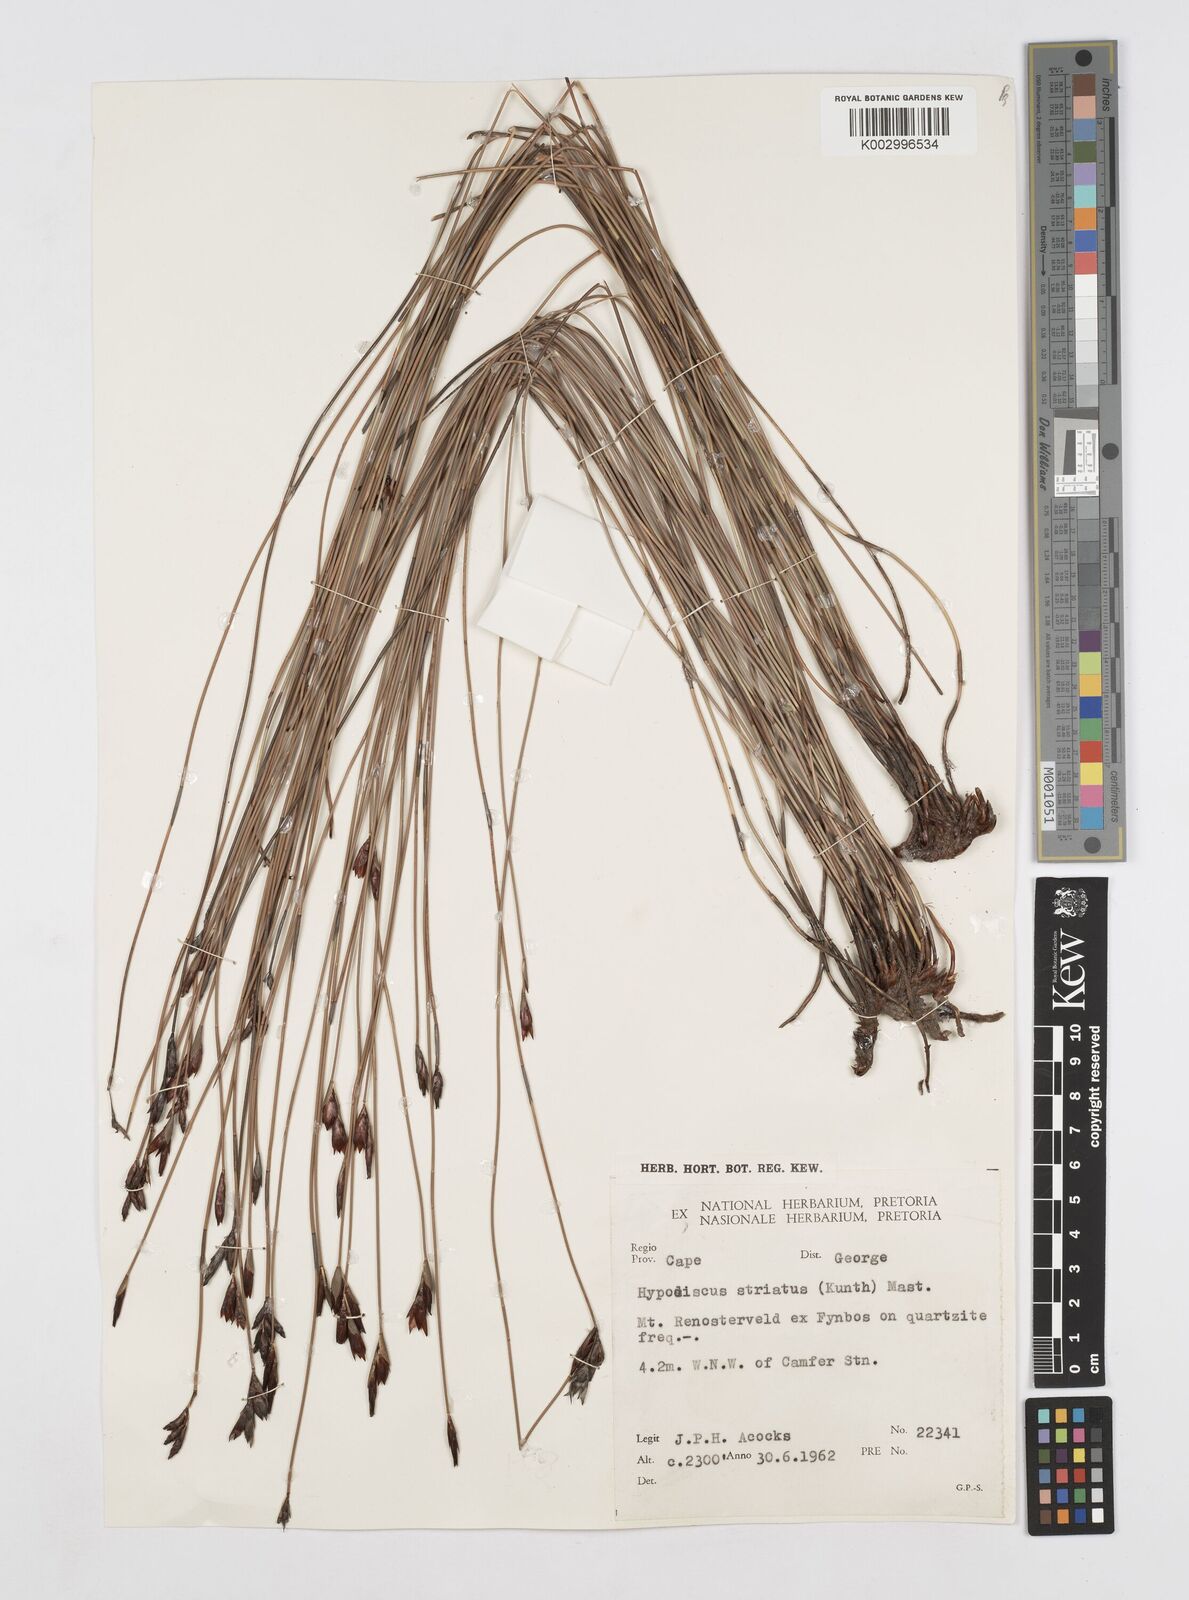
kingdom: Plantae
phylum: Tracheophyta
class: Liliopsida
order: Poales
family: Restionaceae
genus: Hypodiscus
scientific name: Hypodiscus striatus
